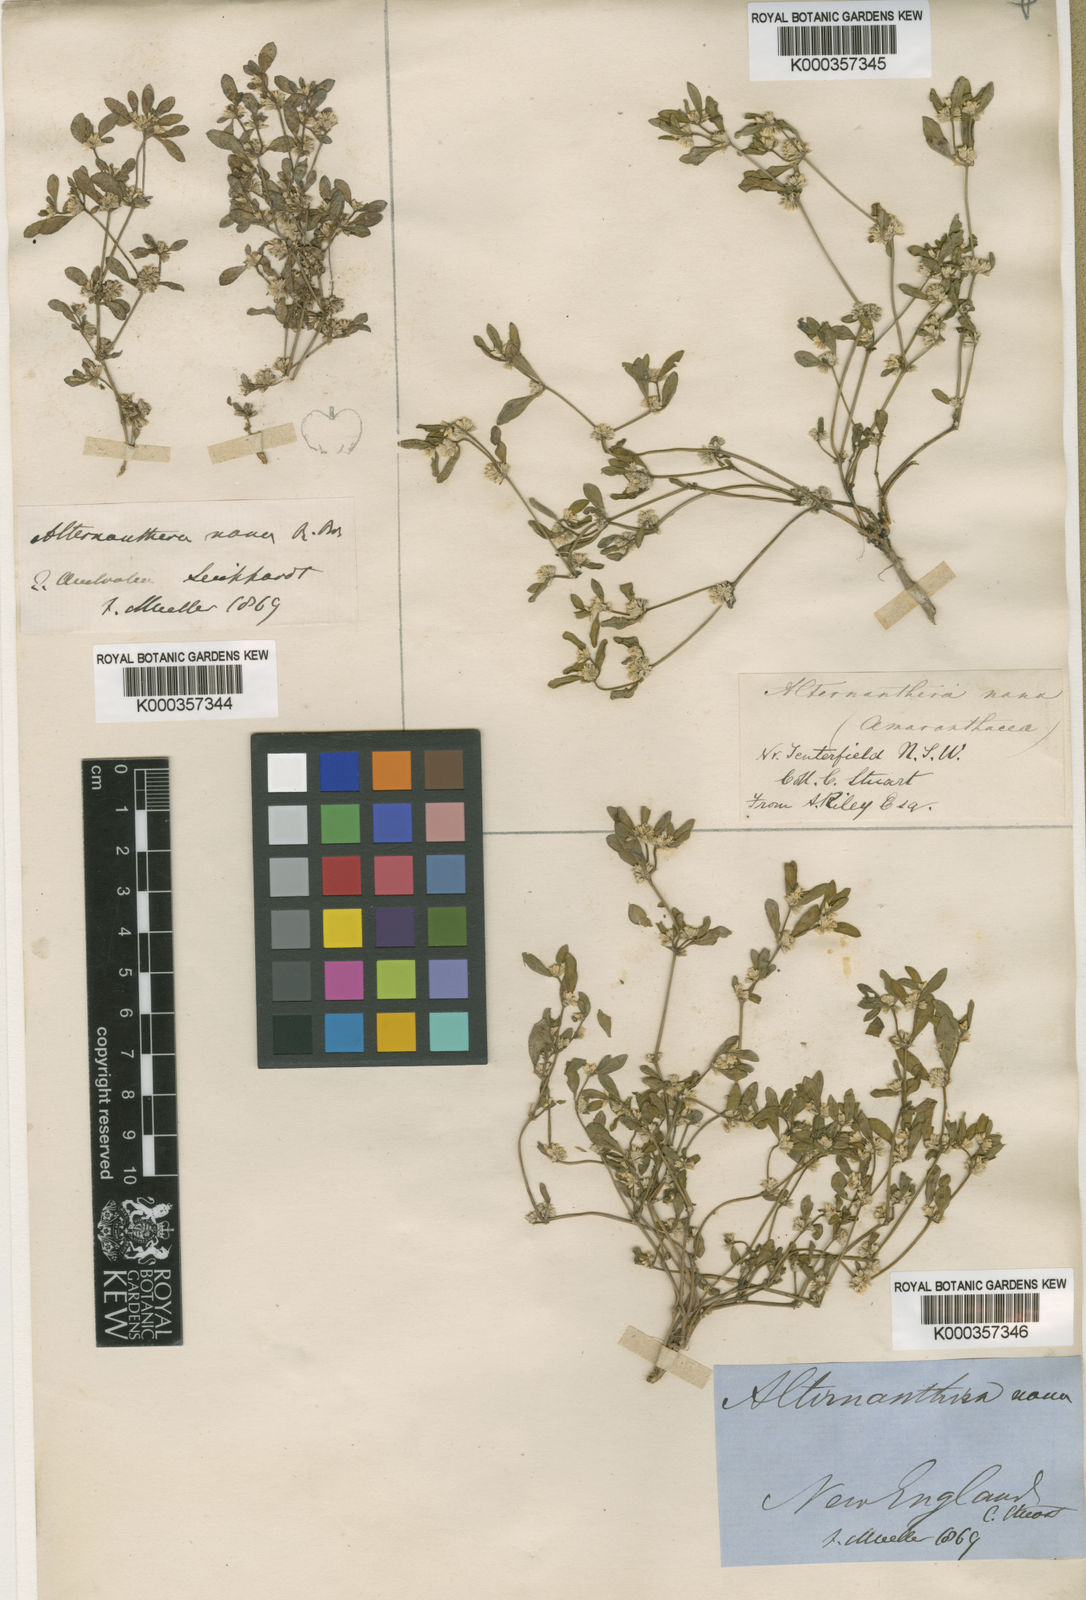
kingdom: Plantae
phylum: Tracheophyta
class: Magnoliopsida
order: Caryophyllales
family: Amaranthaceae
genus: Alternanthera
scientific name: Alternanthera nana
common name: Hairy joyweed
